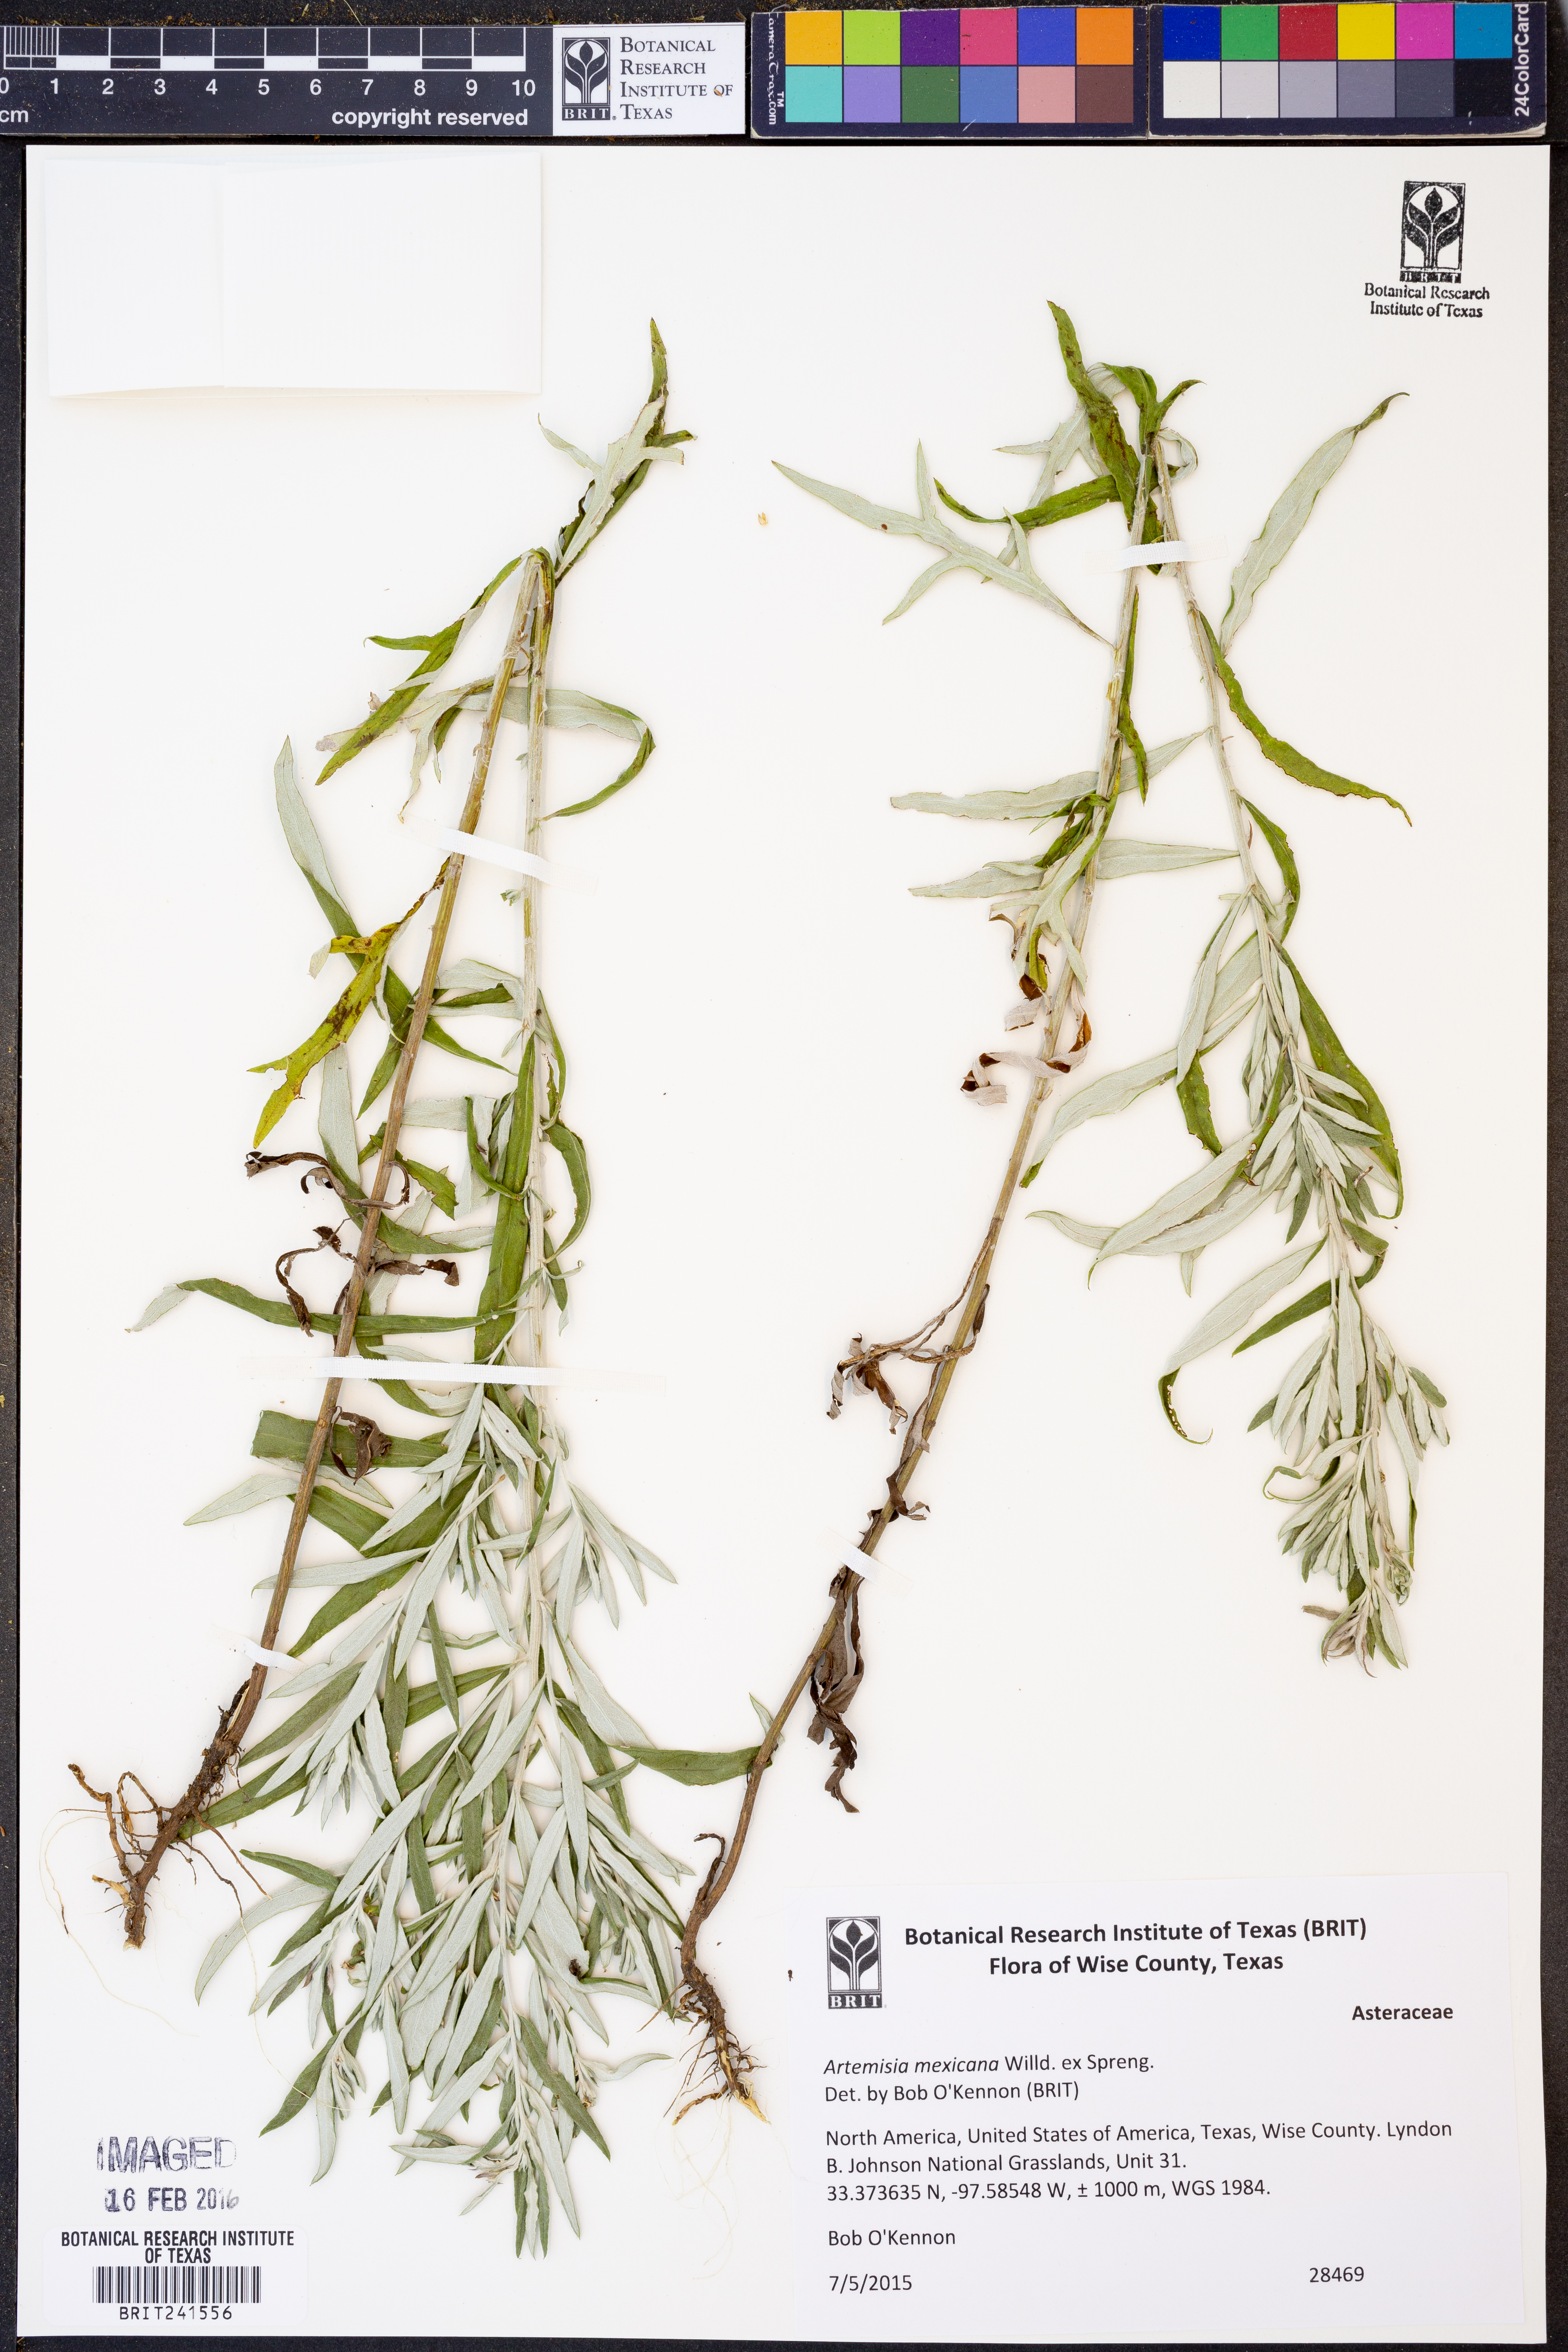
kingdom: Plantae
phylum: Tracheophyta
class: Magnoliopsida
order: Asterales
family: Asteraceae
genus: Artemisia
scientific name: Artemisia ludoviciana
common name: Western mugwort
